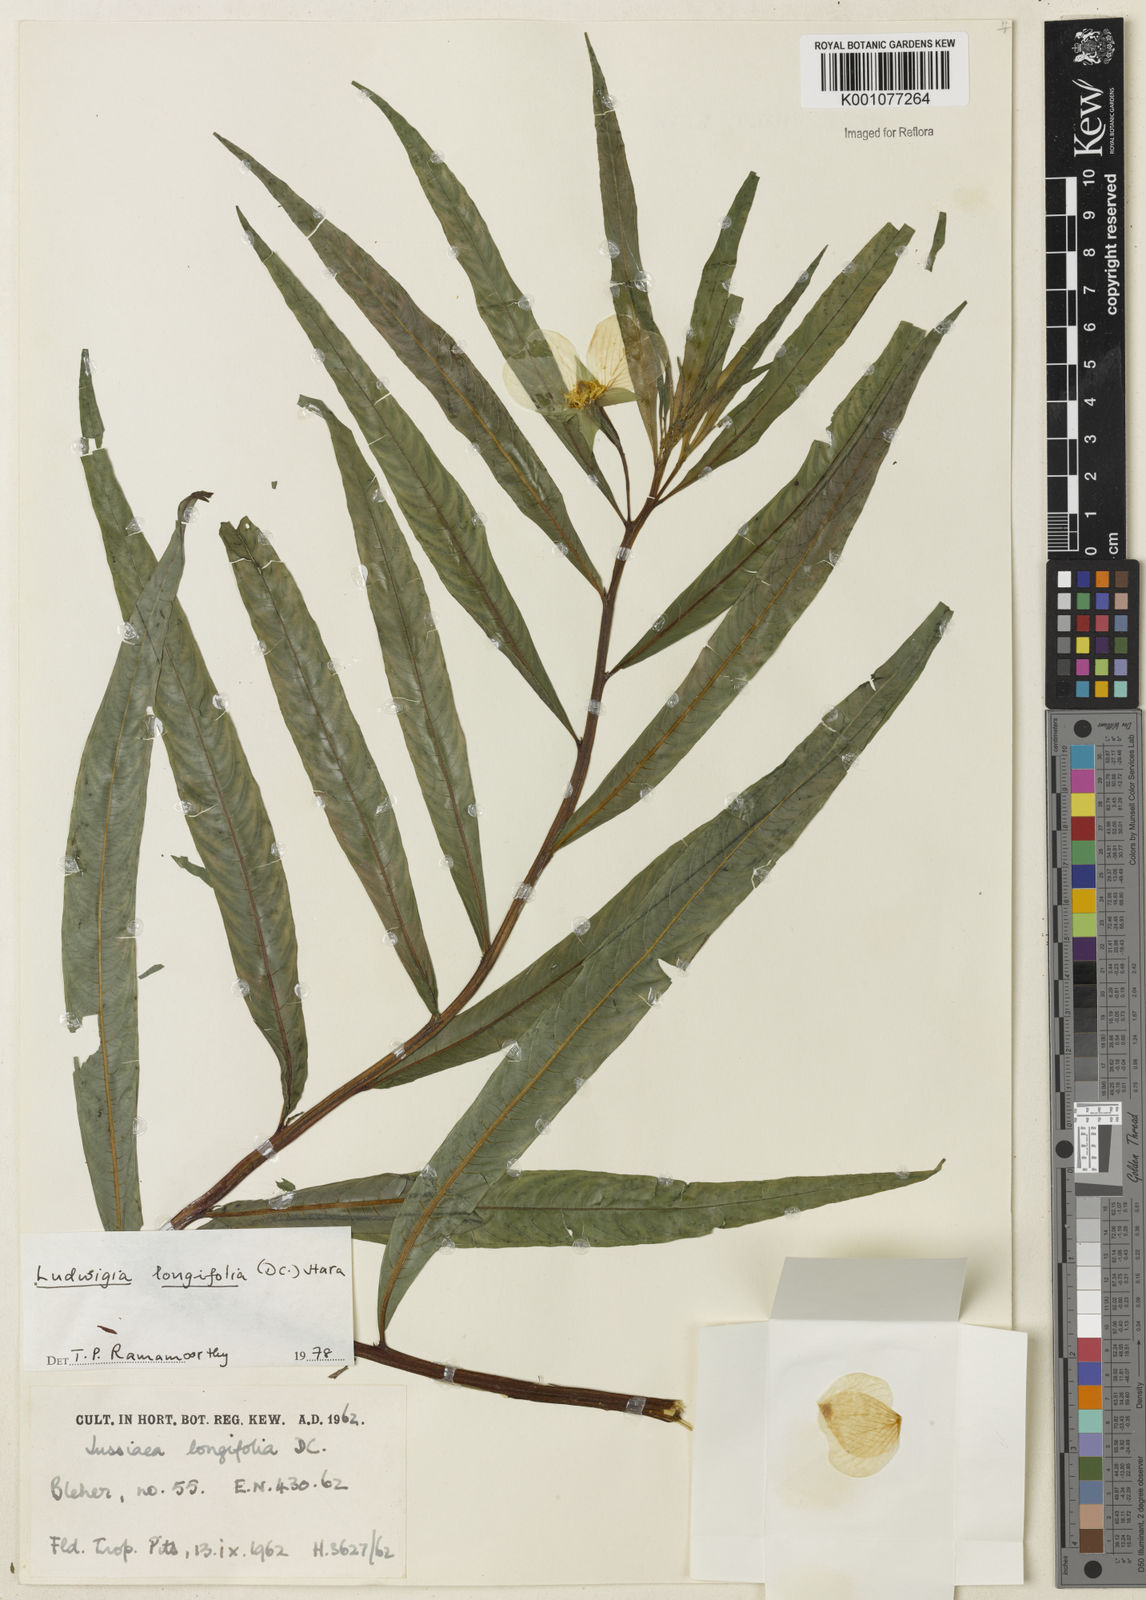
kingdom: Plantae
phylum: Tracheophyta
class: Magnoliopsida
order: Myrtales
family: Onagraceae
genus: Ludwigia
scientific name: Ludwigia longifolia
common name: Longleaf primrose-willow
